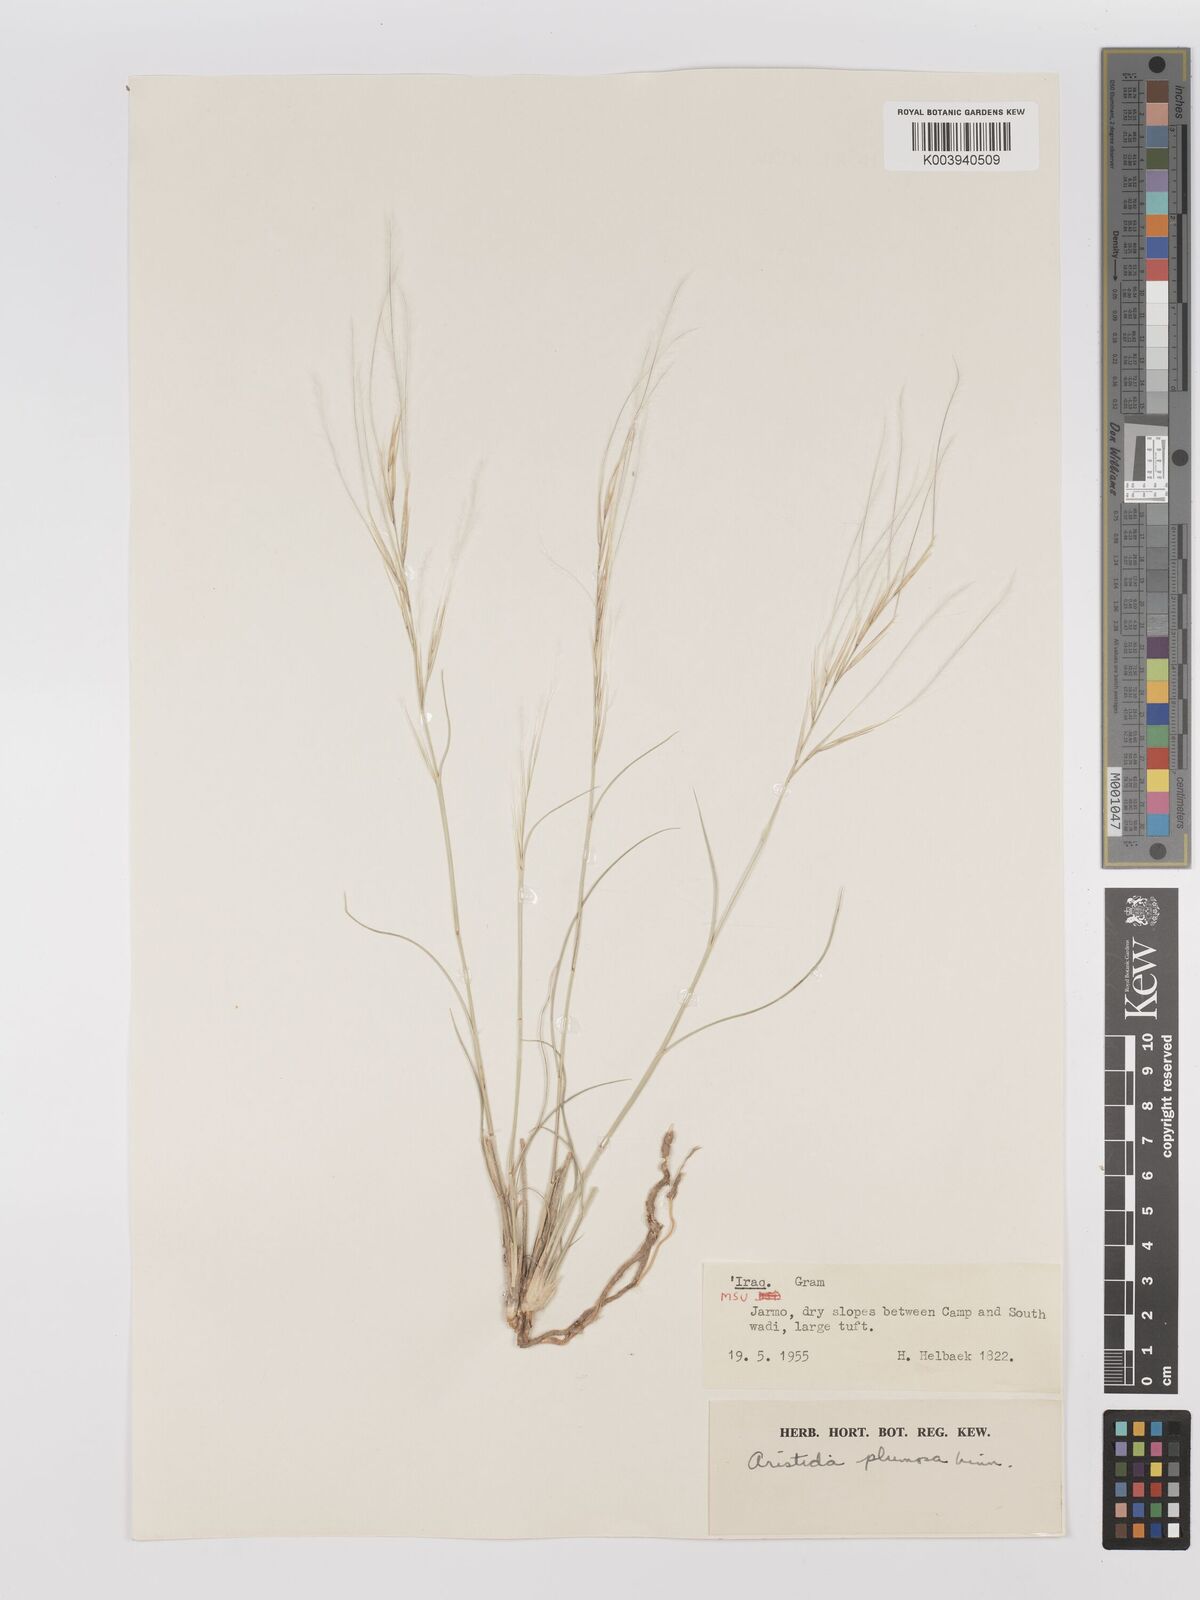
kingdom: Plantae
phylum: Tracheophyta
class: Liliopsida
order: Poales
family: Poaceae
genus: Stipagrostis
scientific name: Stipagrostis plumosa
